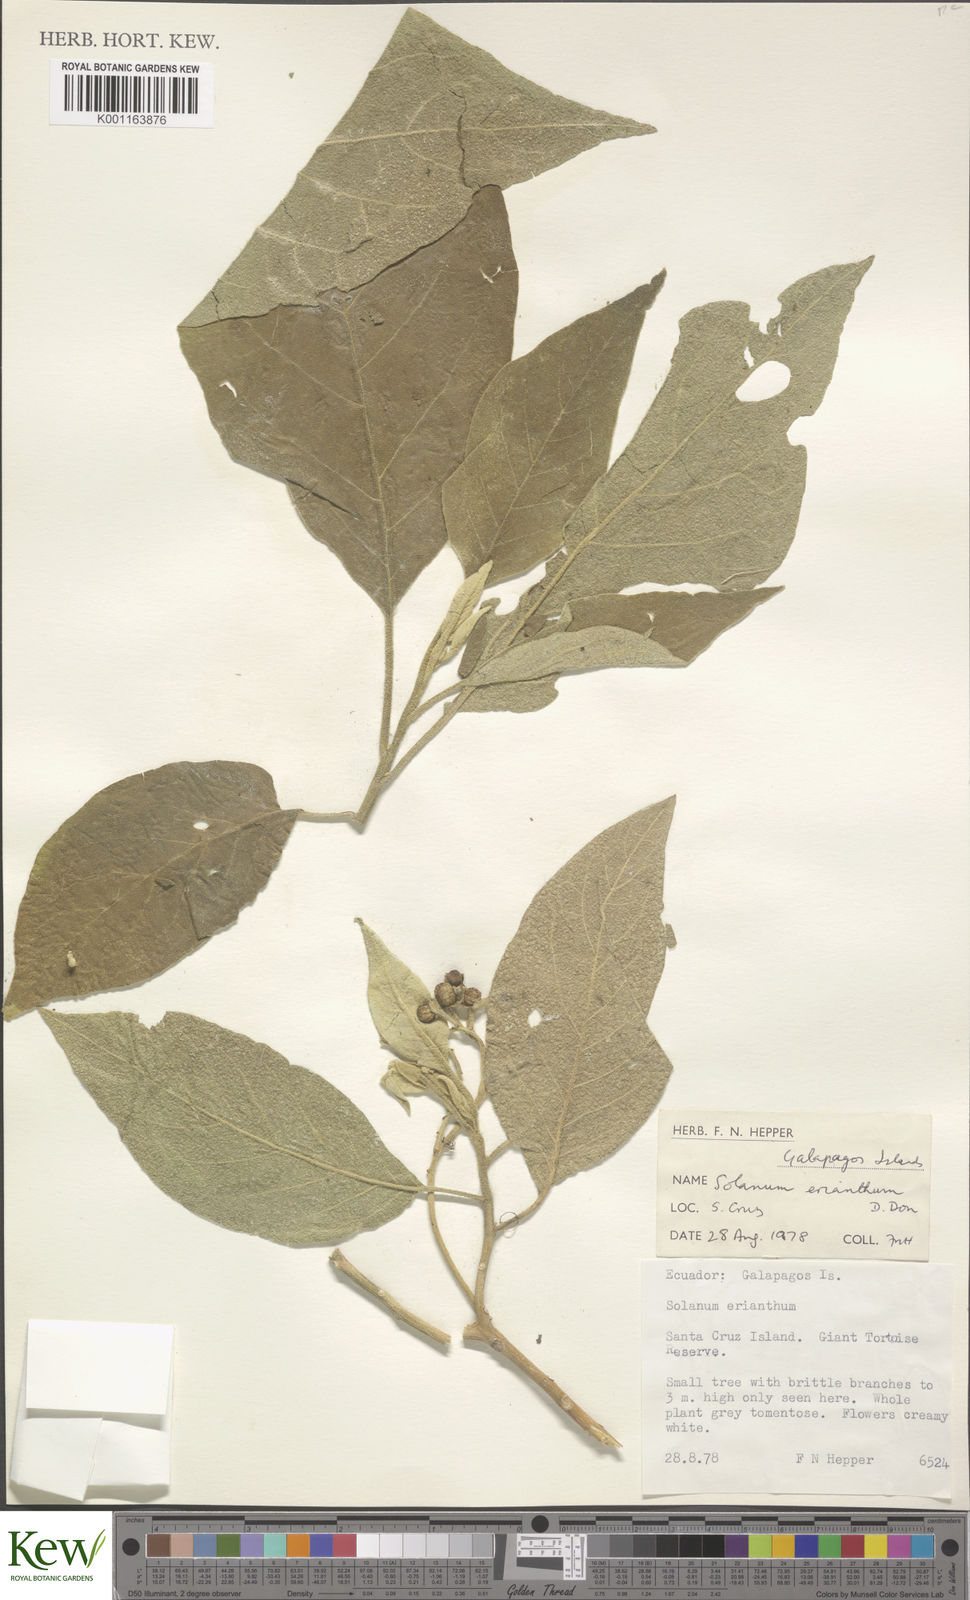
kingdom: Plantae
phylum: Tracheophyta
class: Magnoliopsida
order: Solanales
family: Solanaceae
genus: Solanum
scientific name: Solanum erianthum
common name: Tobacco-tree
